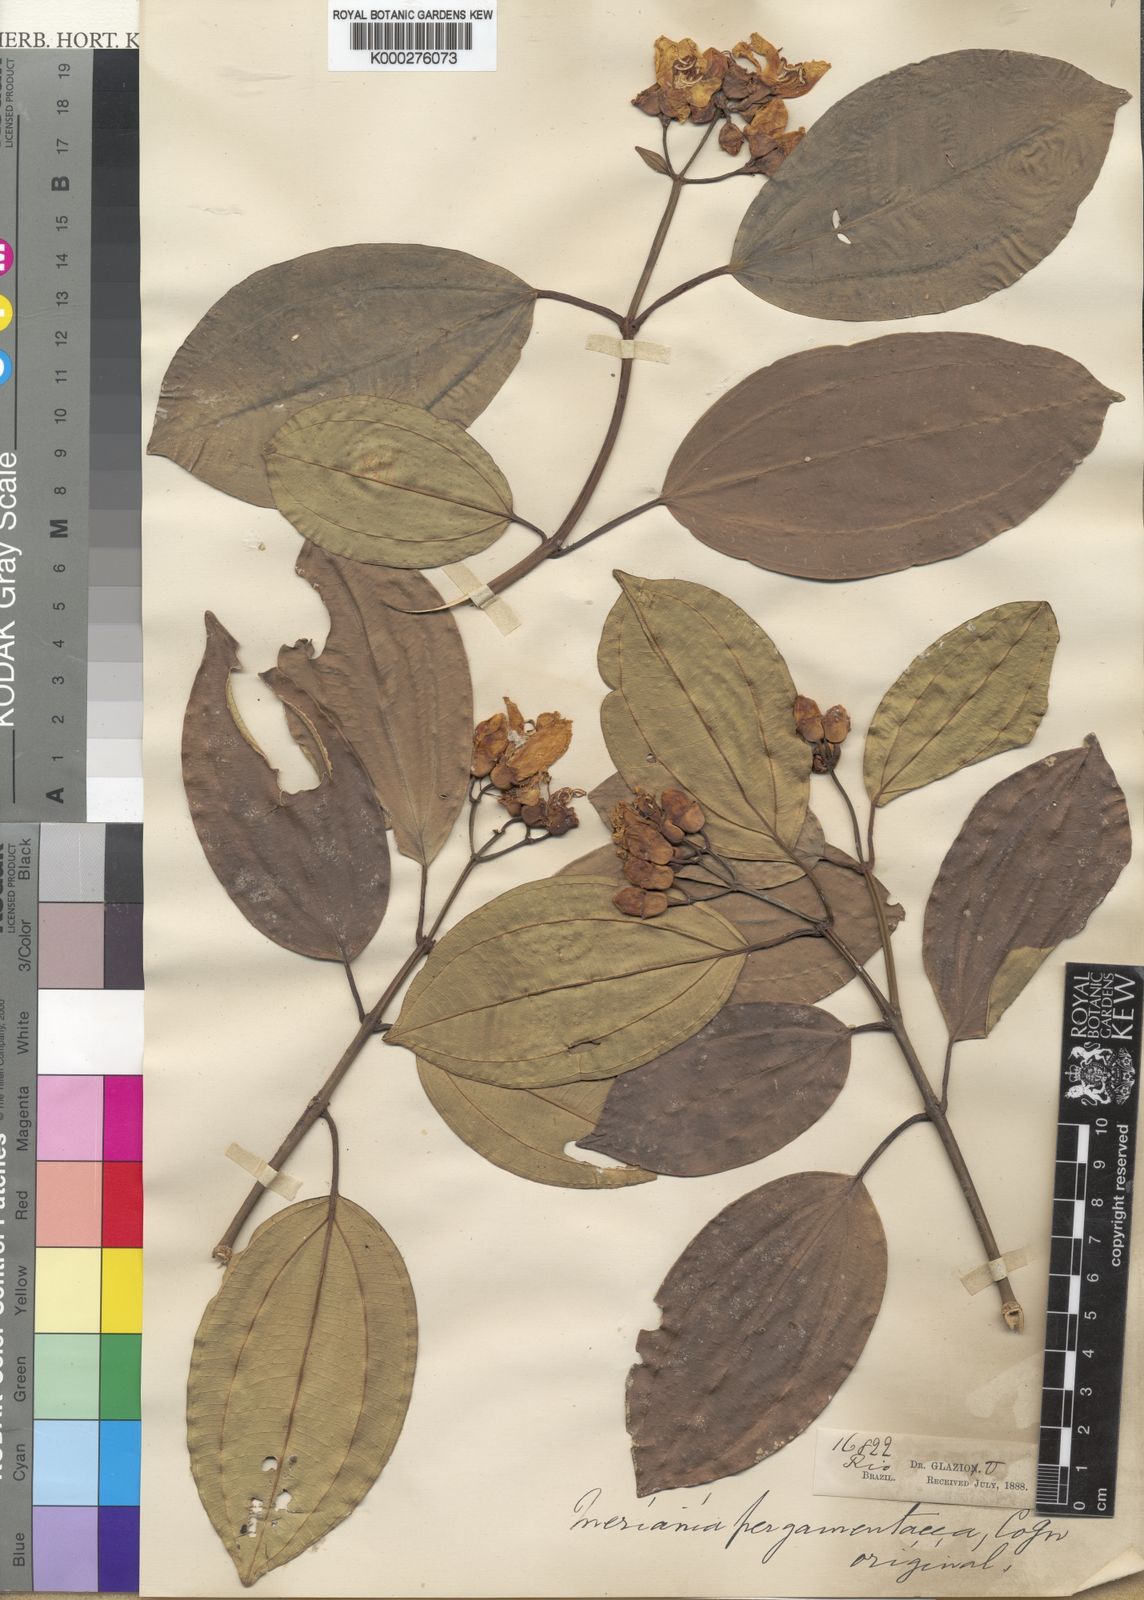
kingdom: Plantae
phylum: Tracheophyta
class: Magnoliopsida
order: Myrtales
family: Melastomataceae
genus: Meriania
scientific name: Meriania robusta
